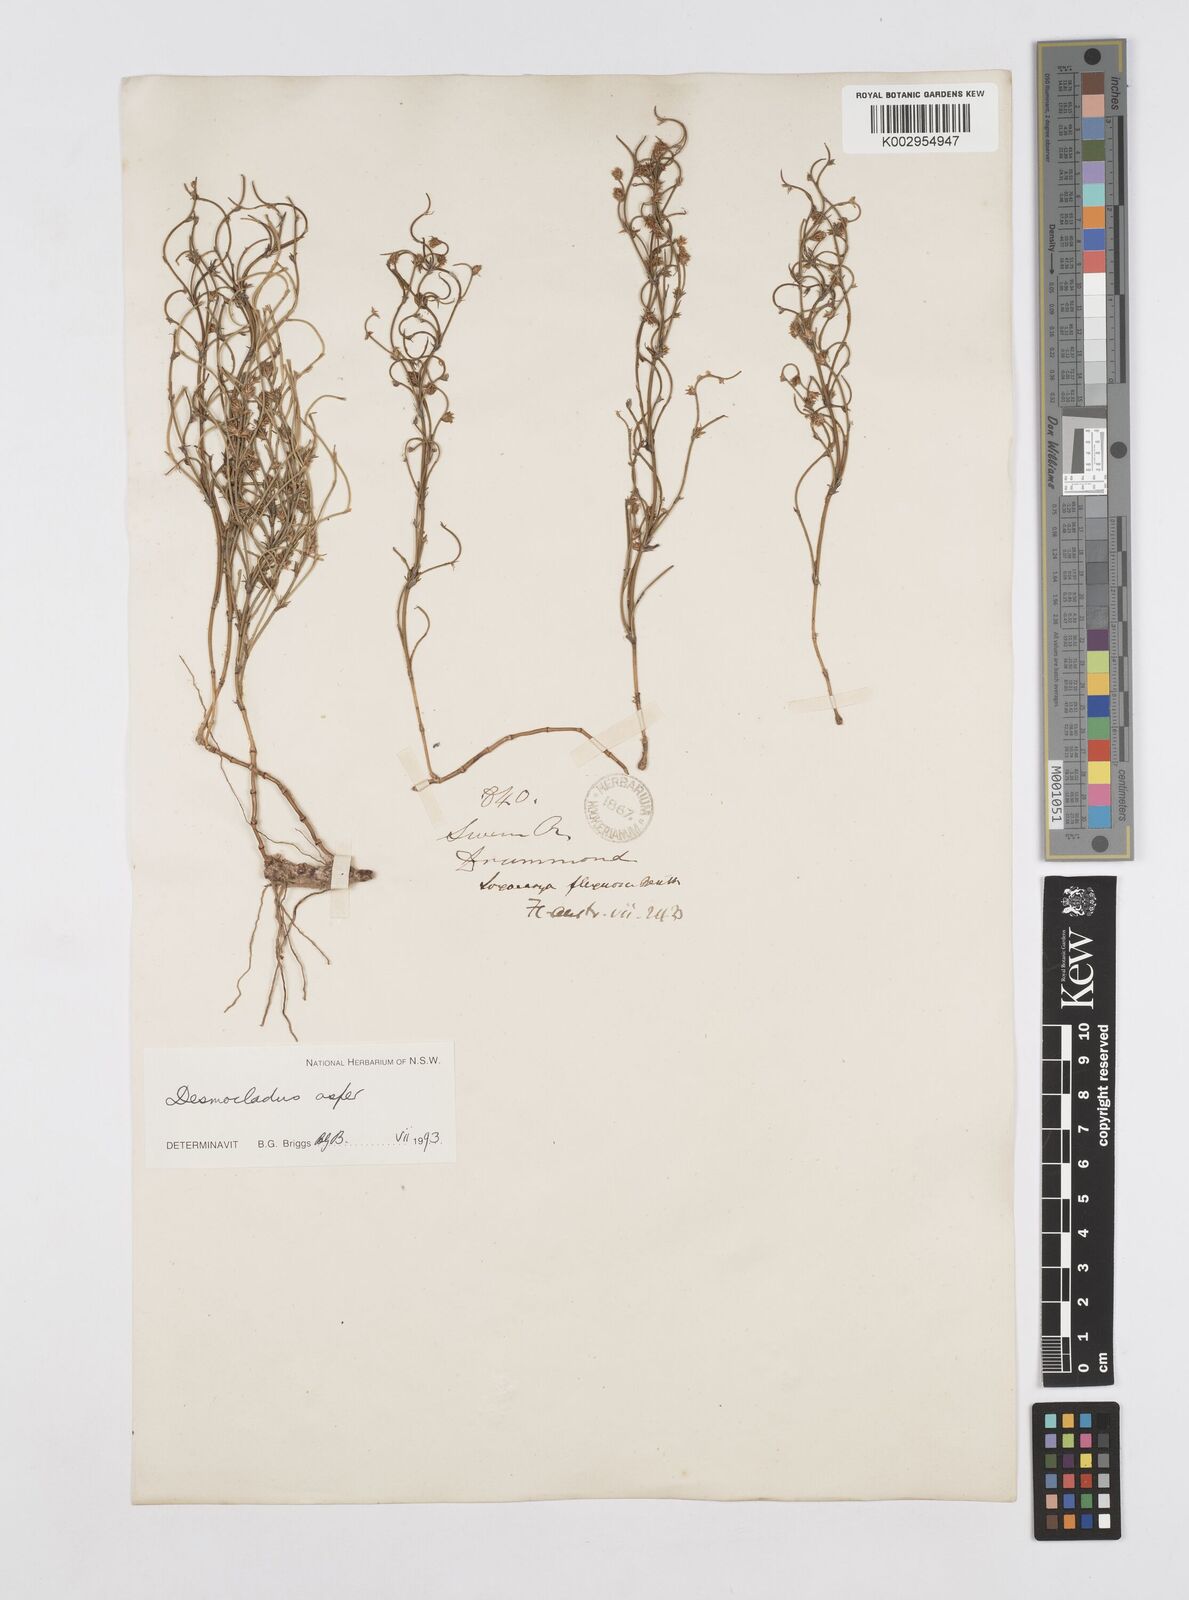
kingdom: Plantae
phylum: Tracheophyta
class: Liliopsida
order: Poales
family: Restionaceae
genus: Desmocladus
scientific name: Desmocladus asper
